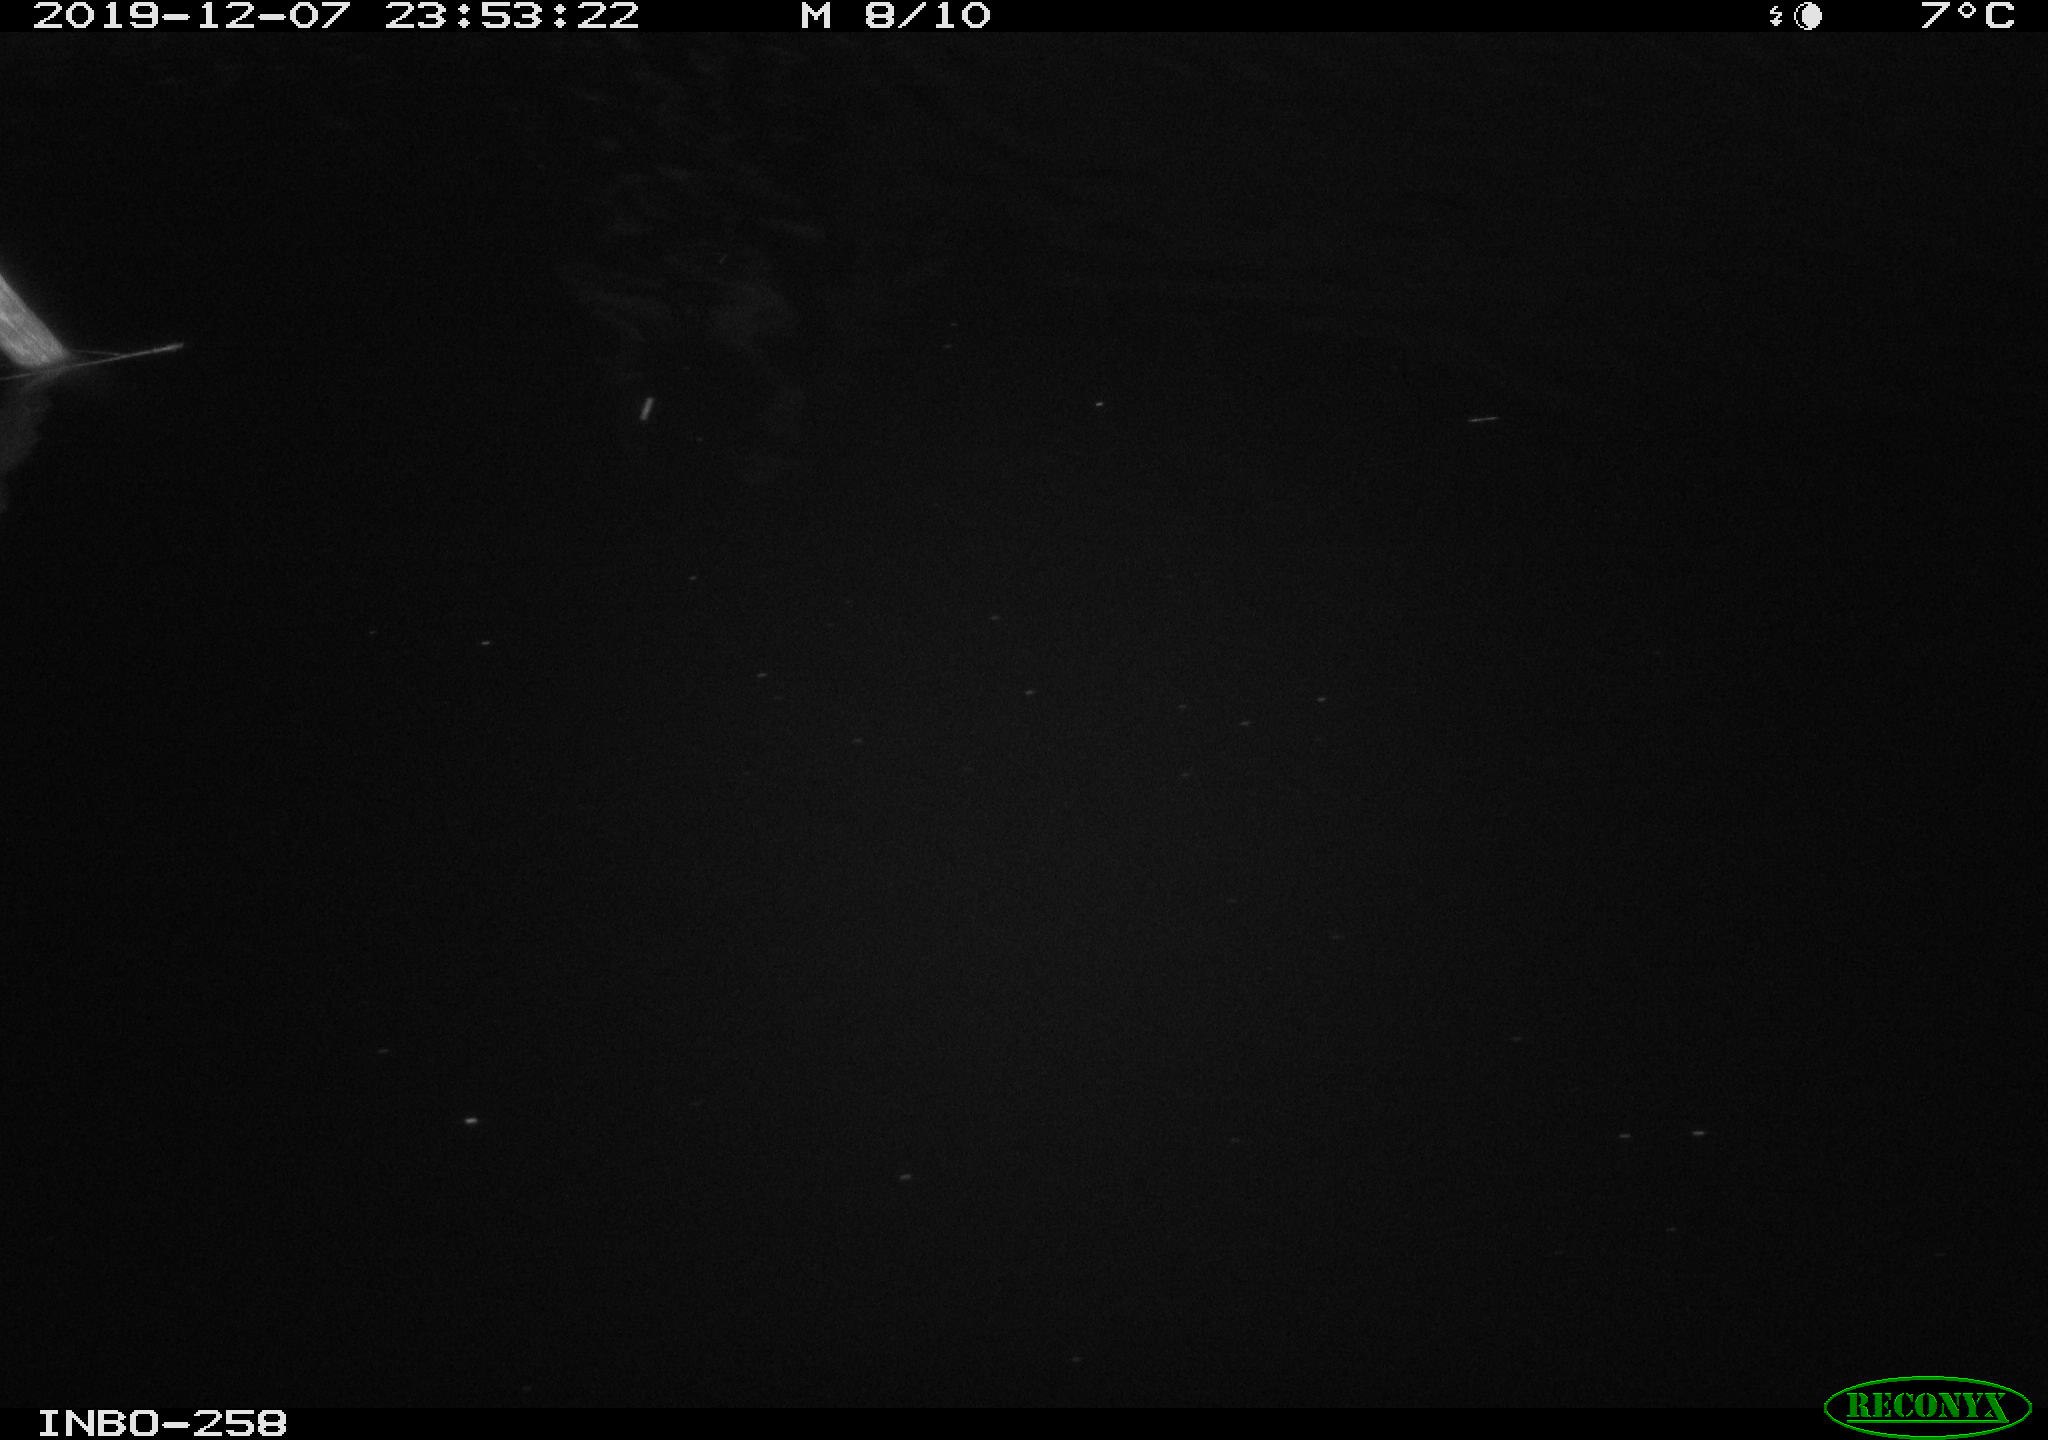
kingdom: Animalia
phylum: Chordata
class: Aves
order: Anseriformes
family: Anatidae
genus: Anas
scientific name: Anas platyrhynchos
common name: Mallard
